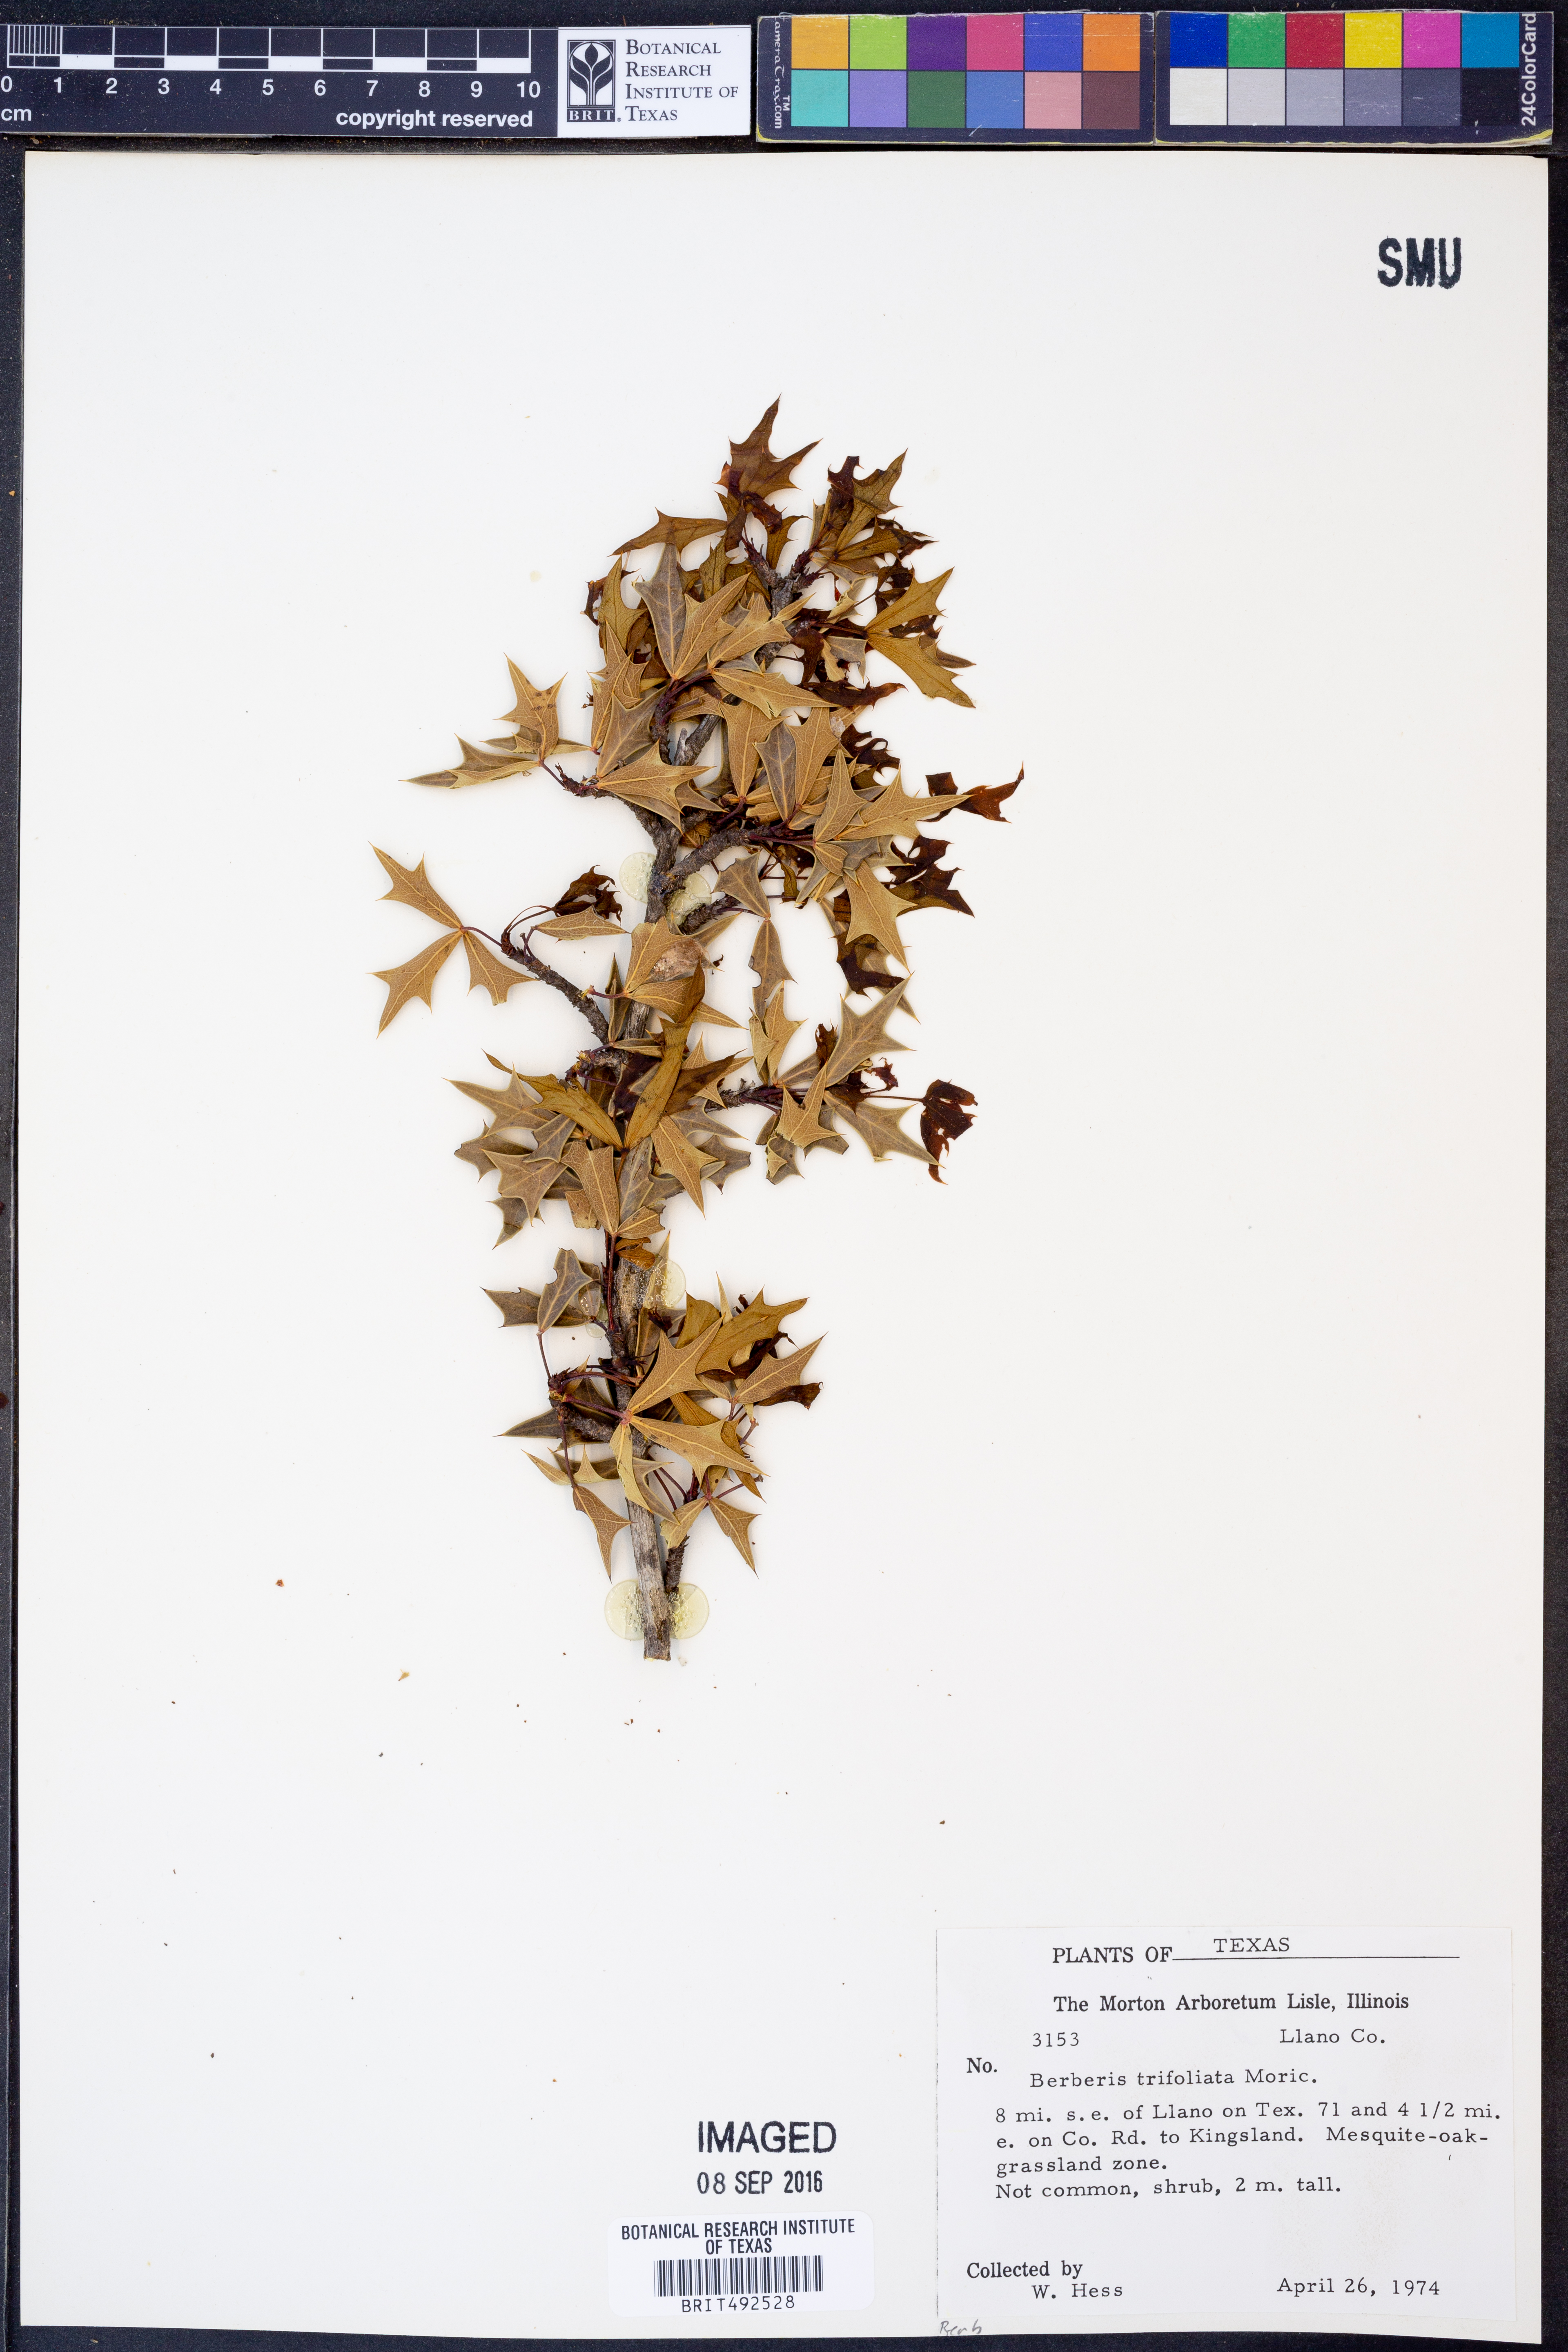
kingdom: Plantae
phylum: Tracheophyta
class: Magnoliopsida
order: Ranunculales
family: Berberidaceae
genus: Alloberberis
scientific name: Alloberberis fremontii
